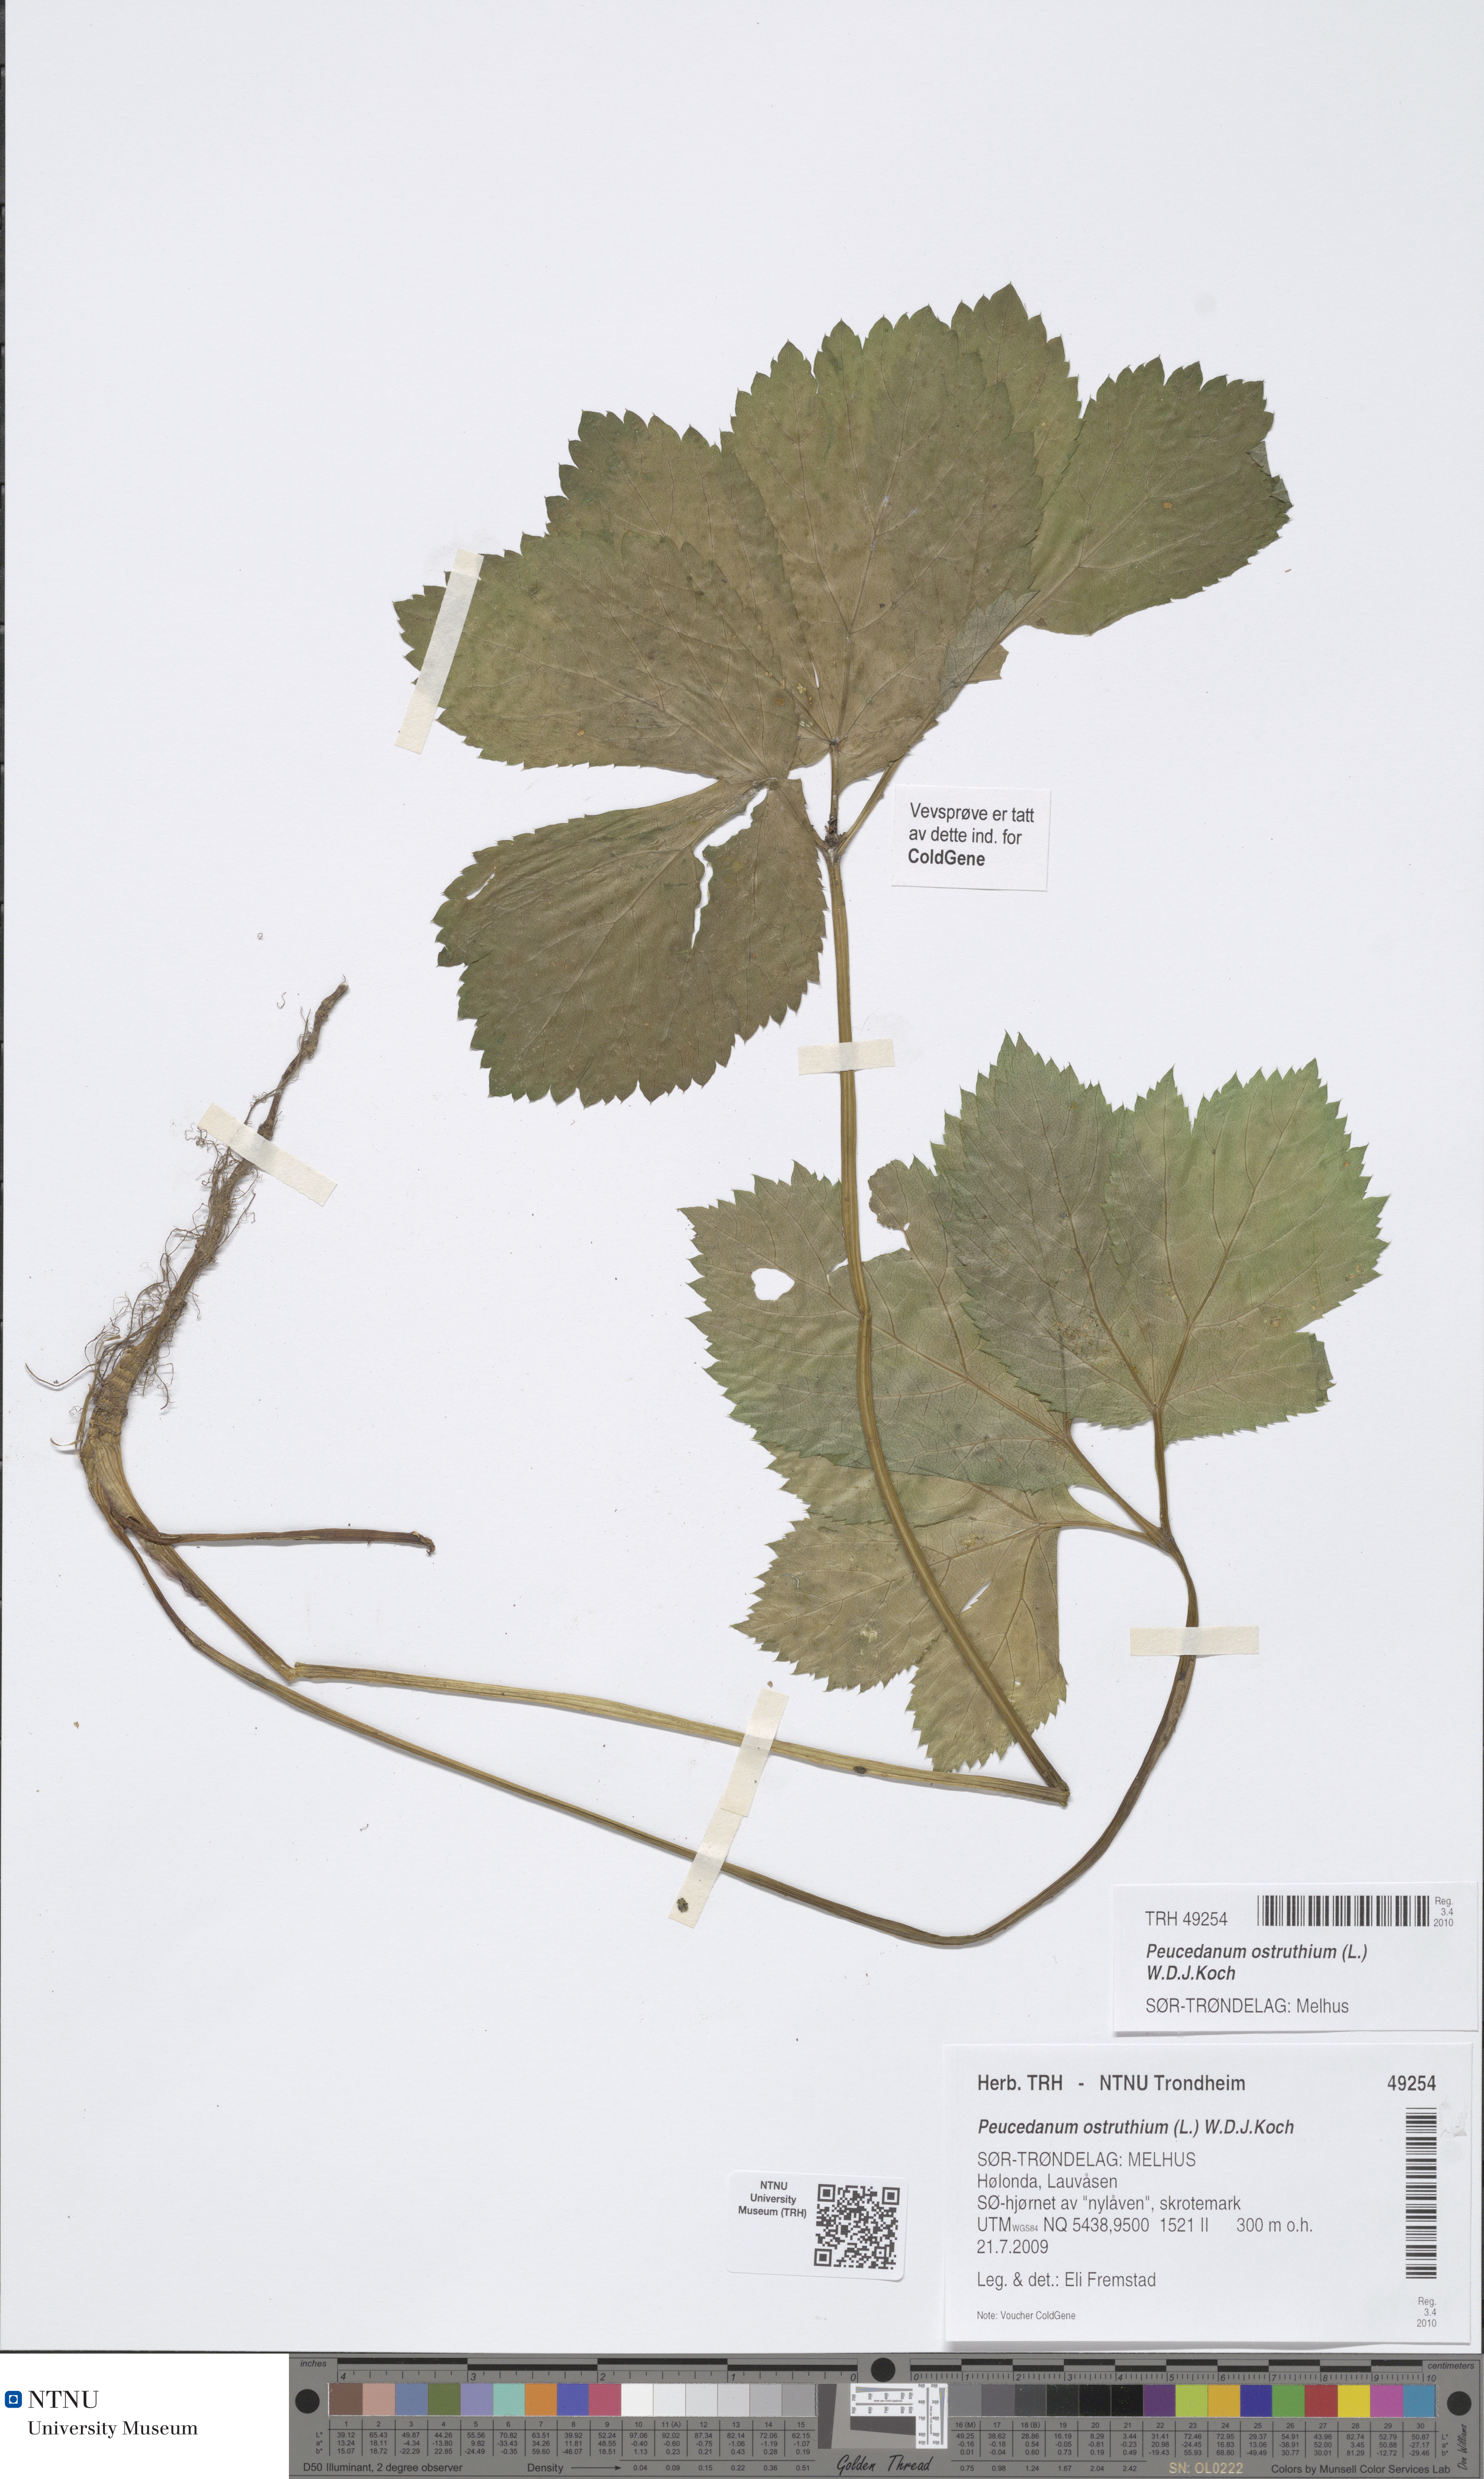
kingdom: Plantae
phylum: Tracheophyta
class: Magnoliopsida
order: Apiales
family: Apiaceae
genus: Imperatoria
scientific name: Imperatoria ostruthium
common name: Masterwort
